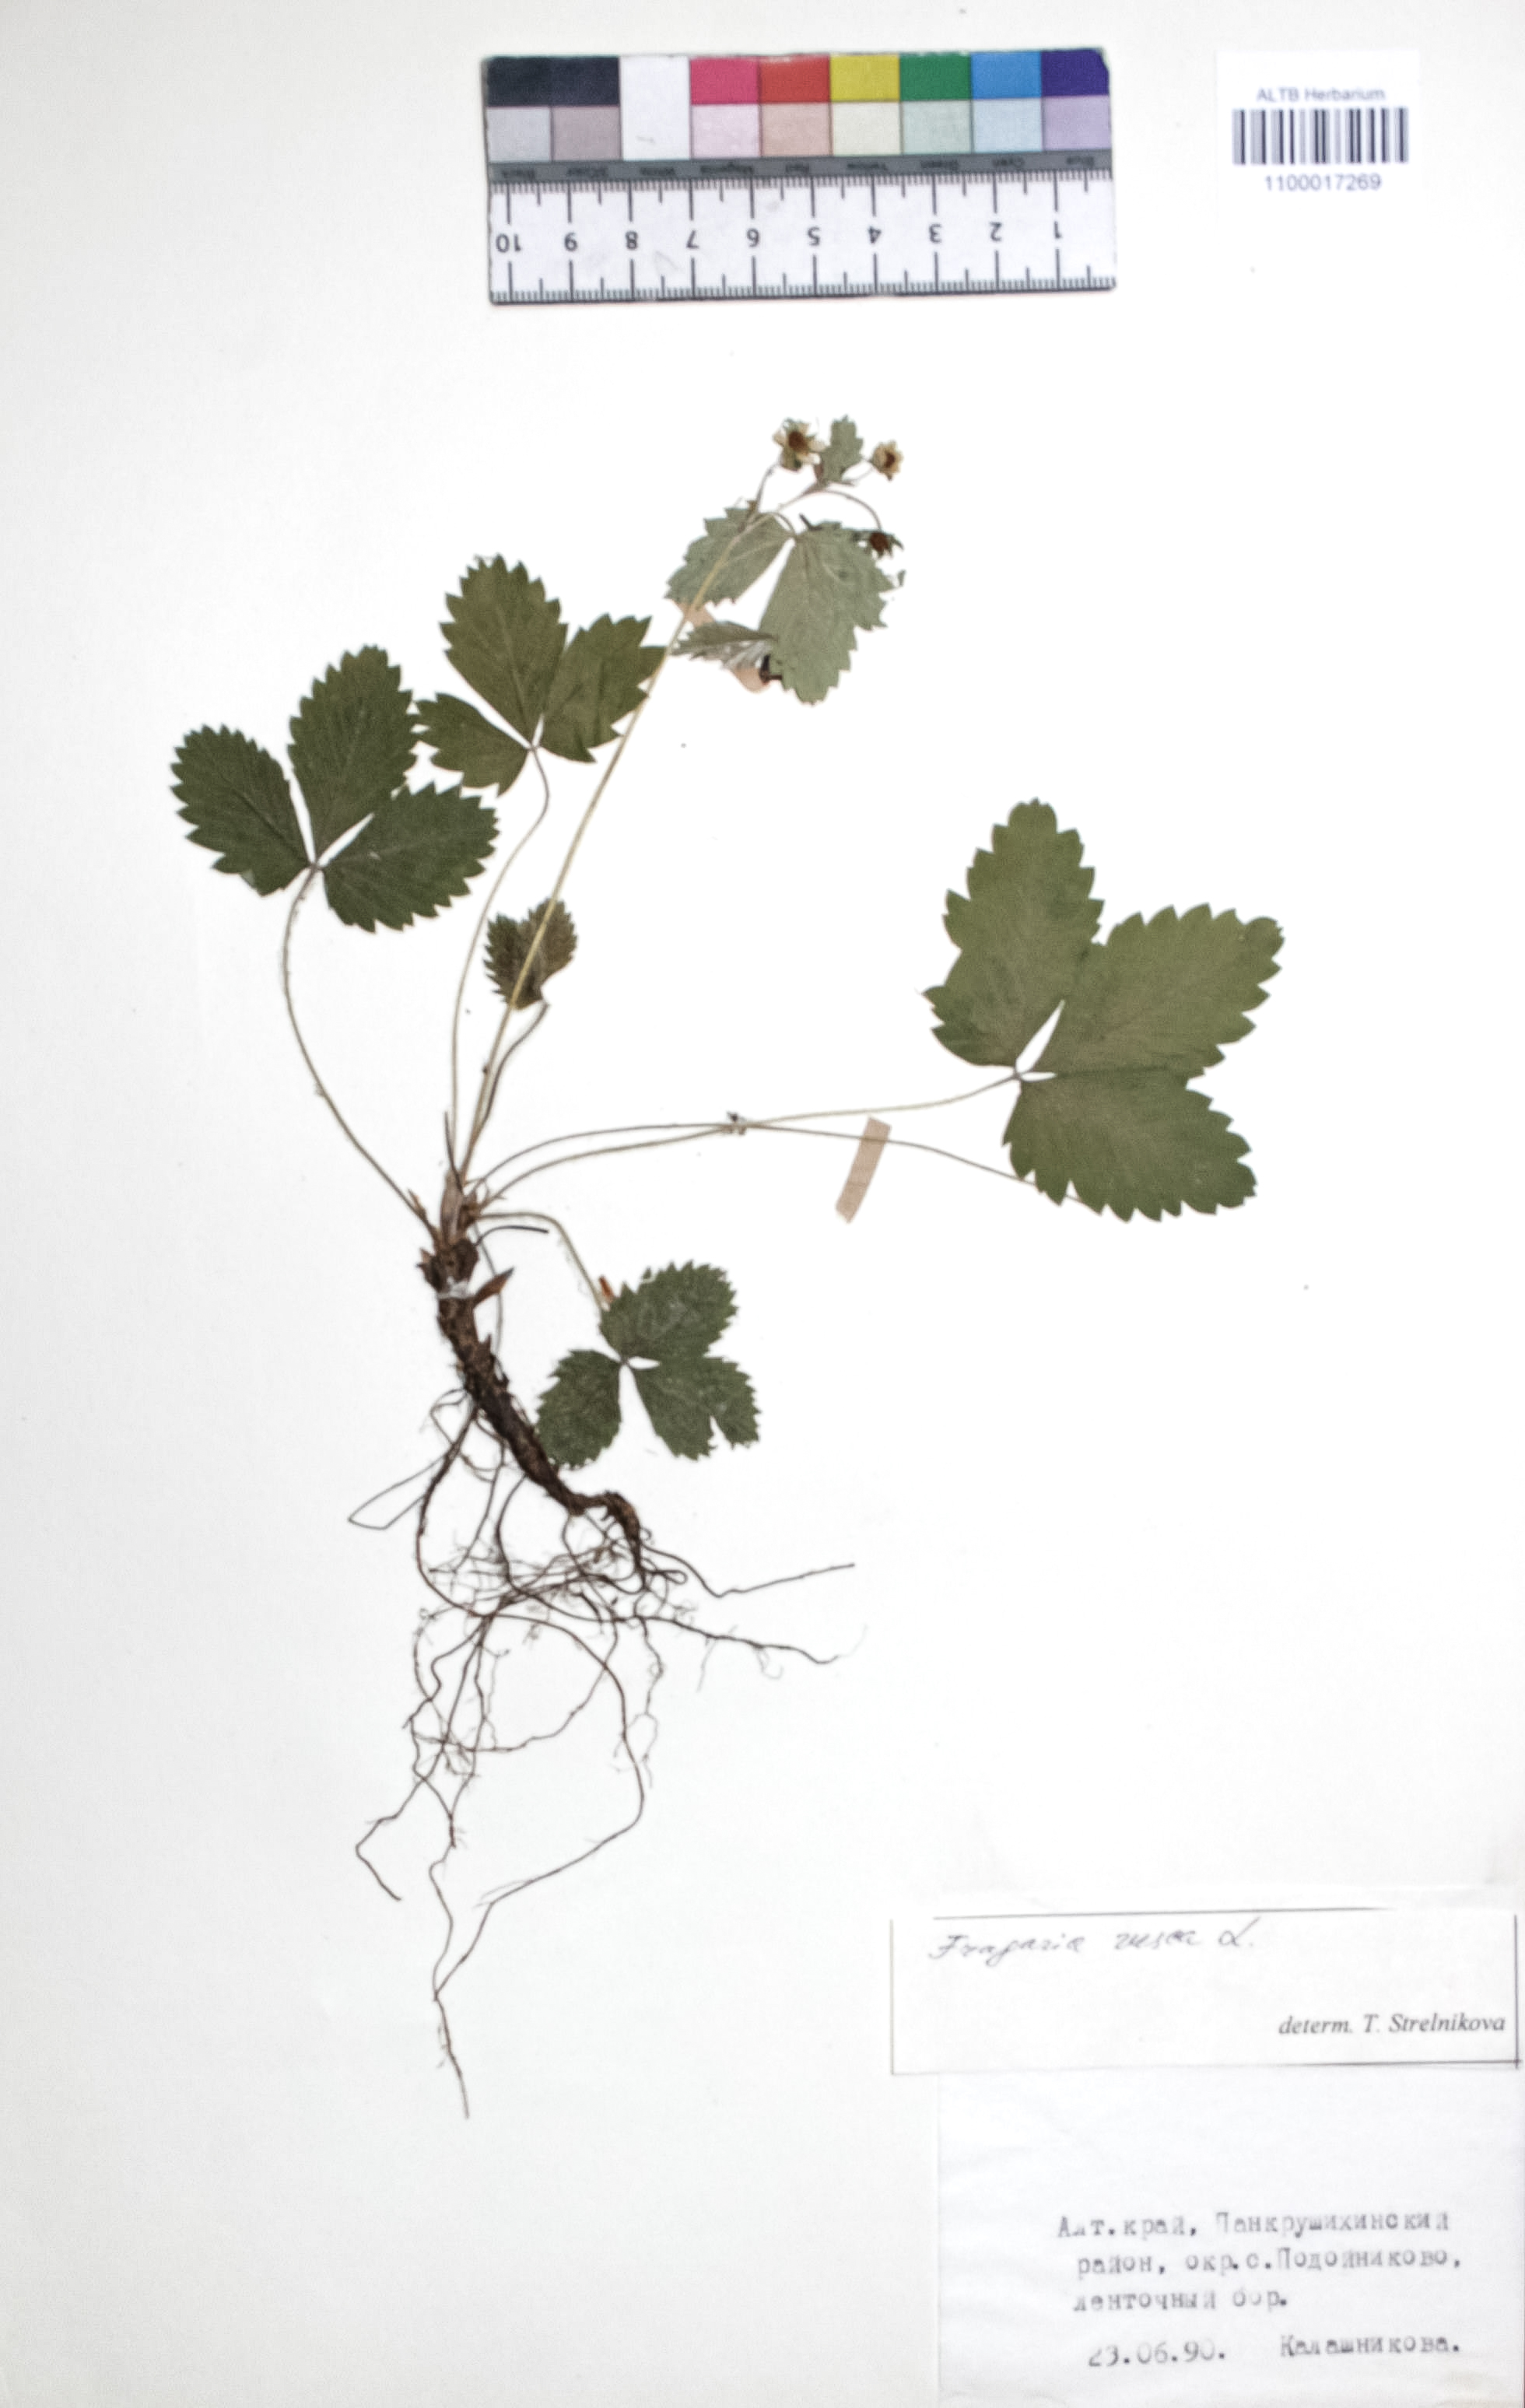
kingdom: Plantae
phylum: Tracheophyta
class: Magnoliopsida
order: Rosales
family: Rosaceae
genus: Fragaria
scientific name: Fragaria vesca
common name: Wild strawberry
